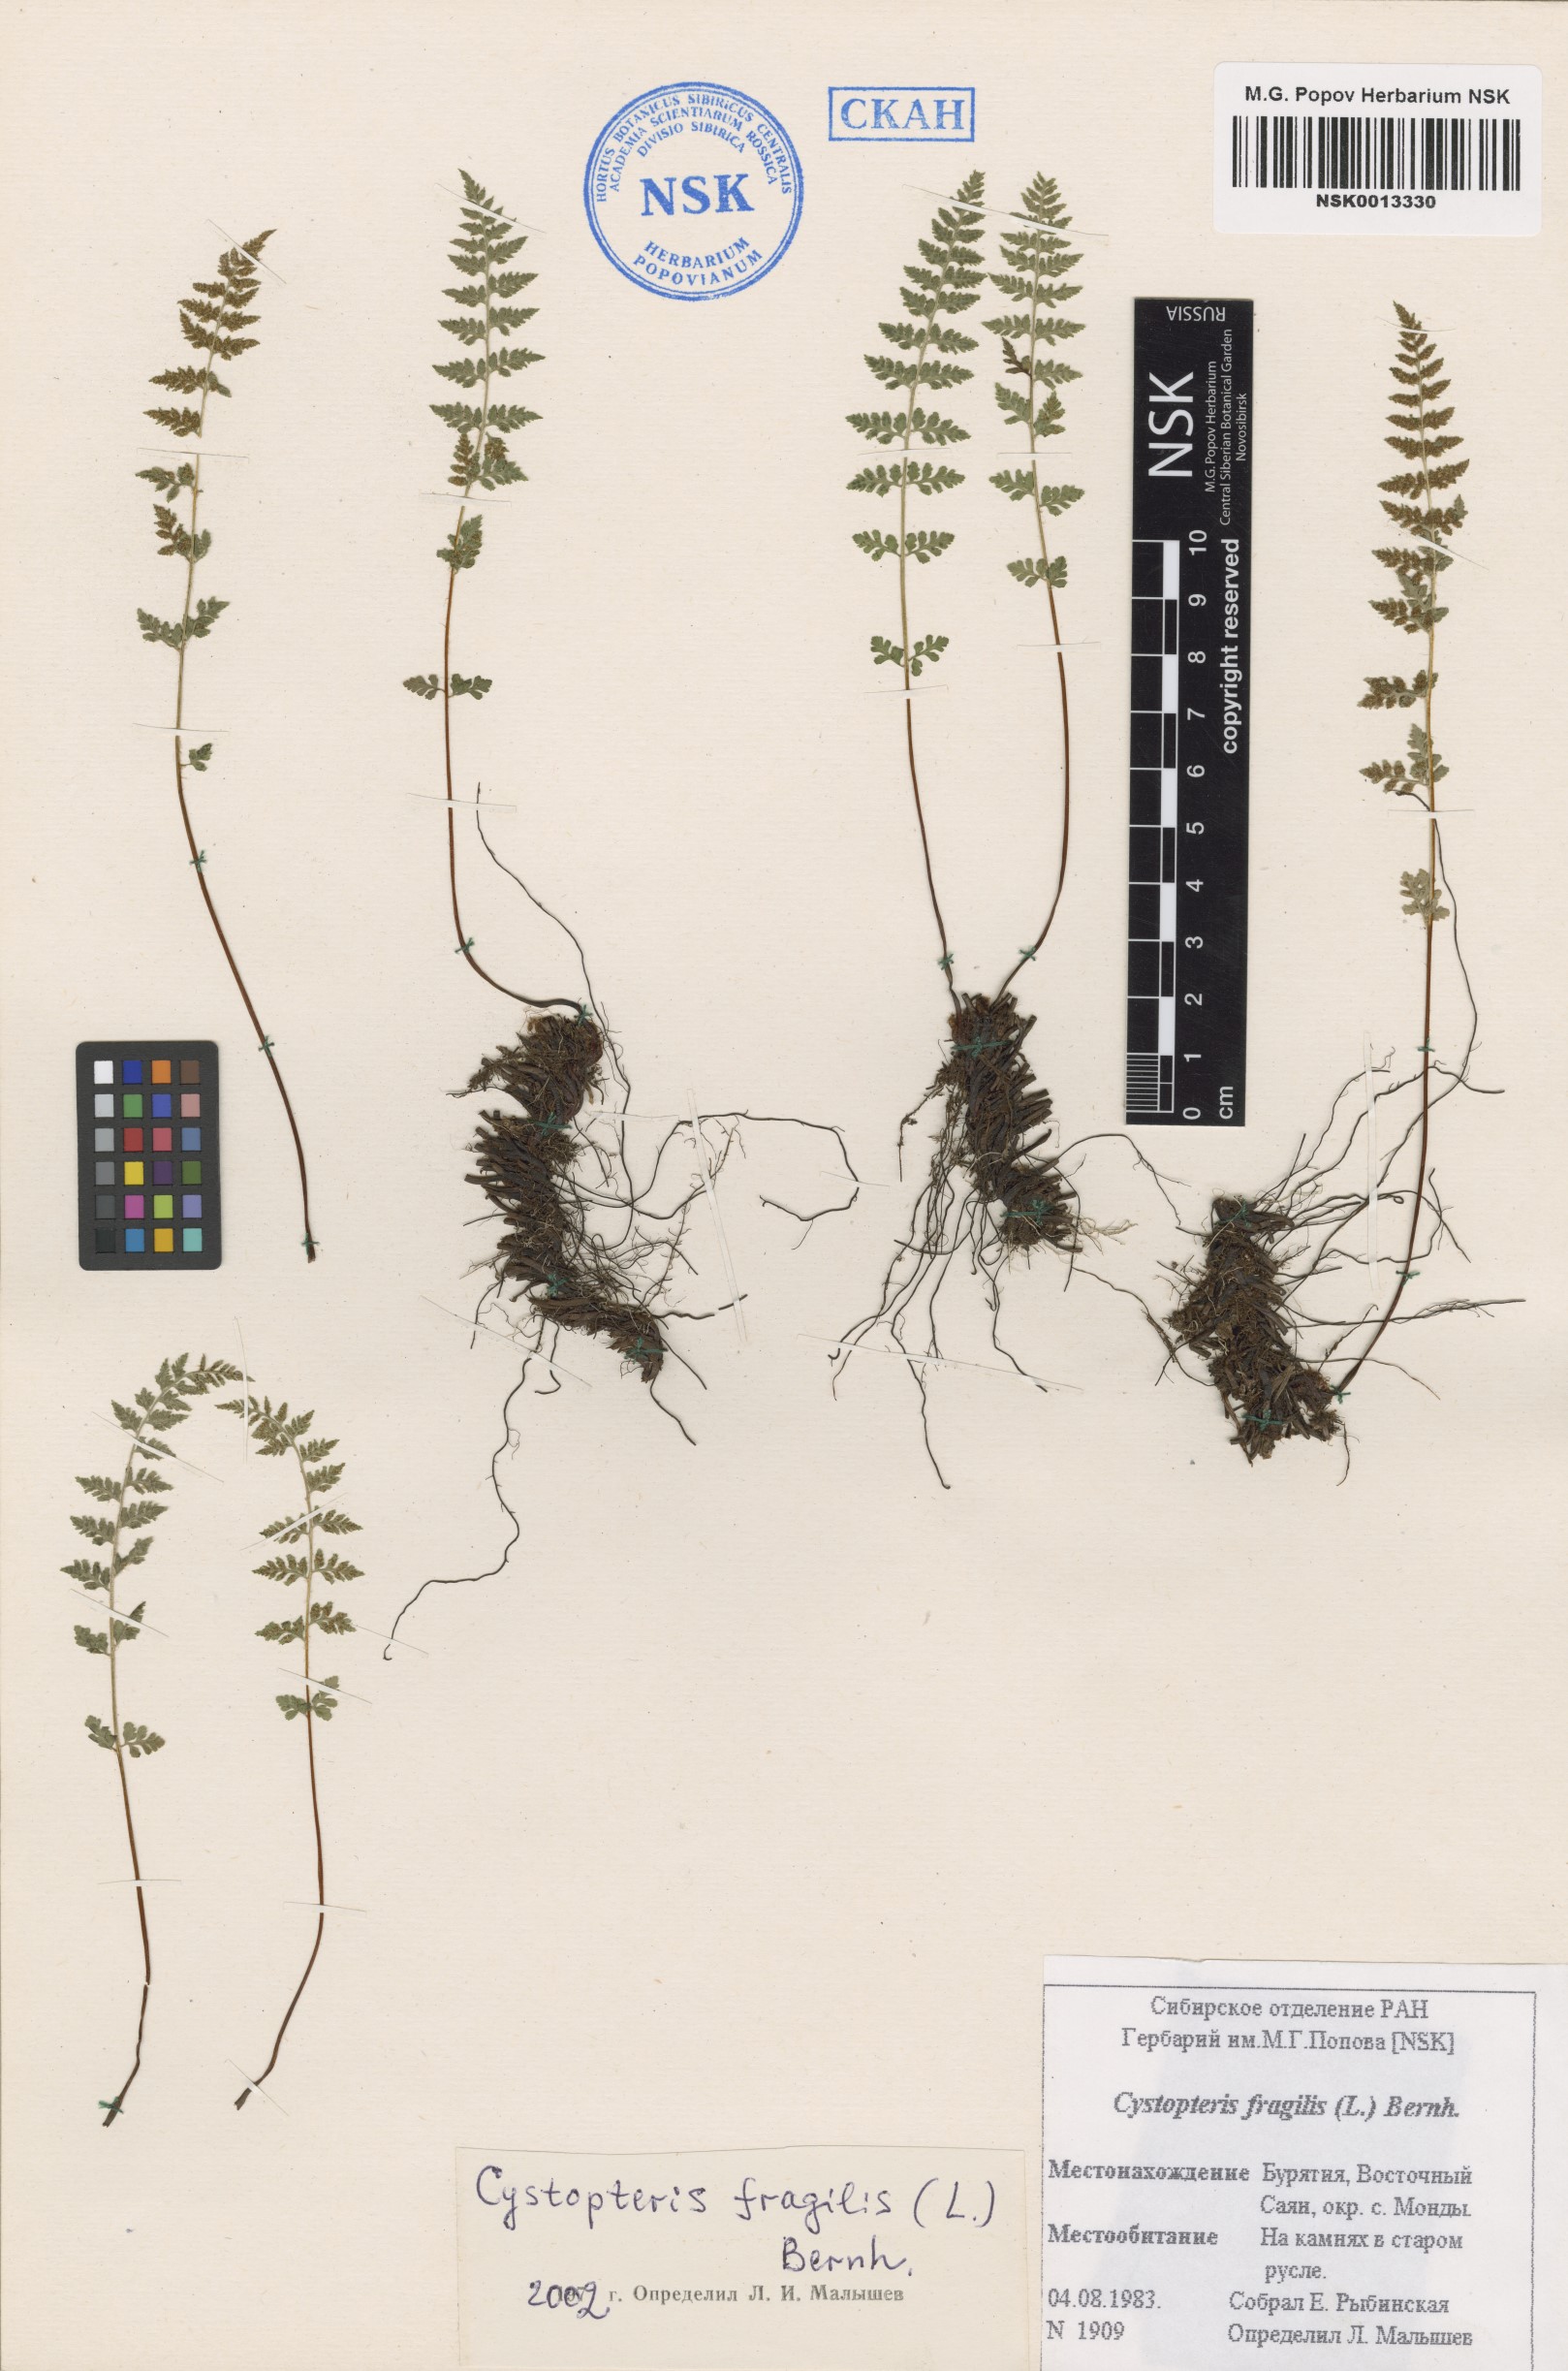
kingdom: Plantae
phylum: Tracheophyta
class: Polypodiopsida
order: Polypodiales
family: Cystopteridaceae
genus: Cystopteris
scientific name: Cystopteris fragilis
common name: Brittle bladder fern
